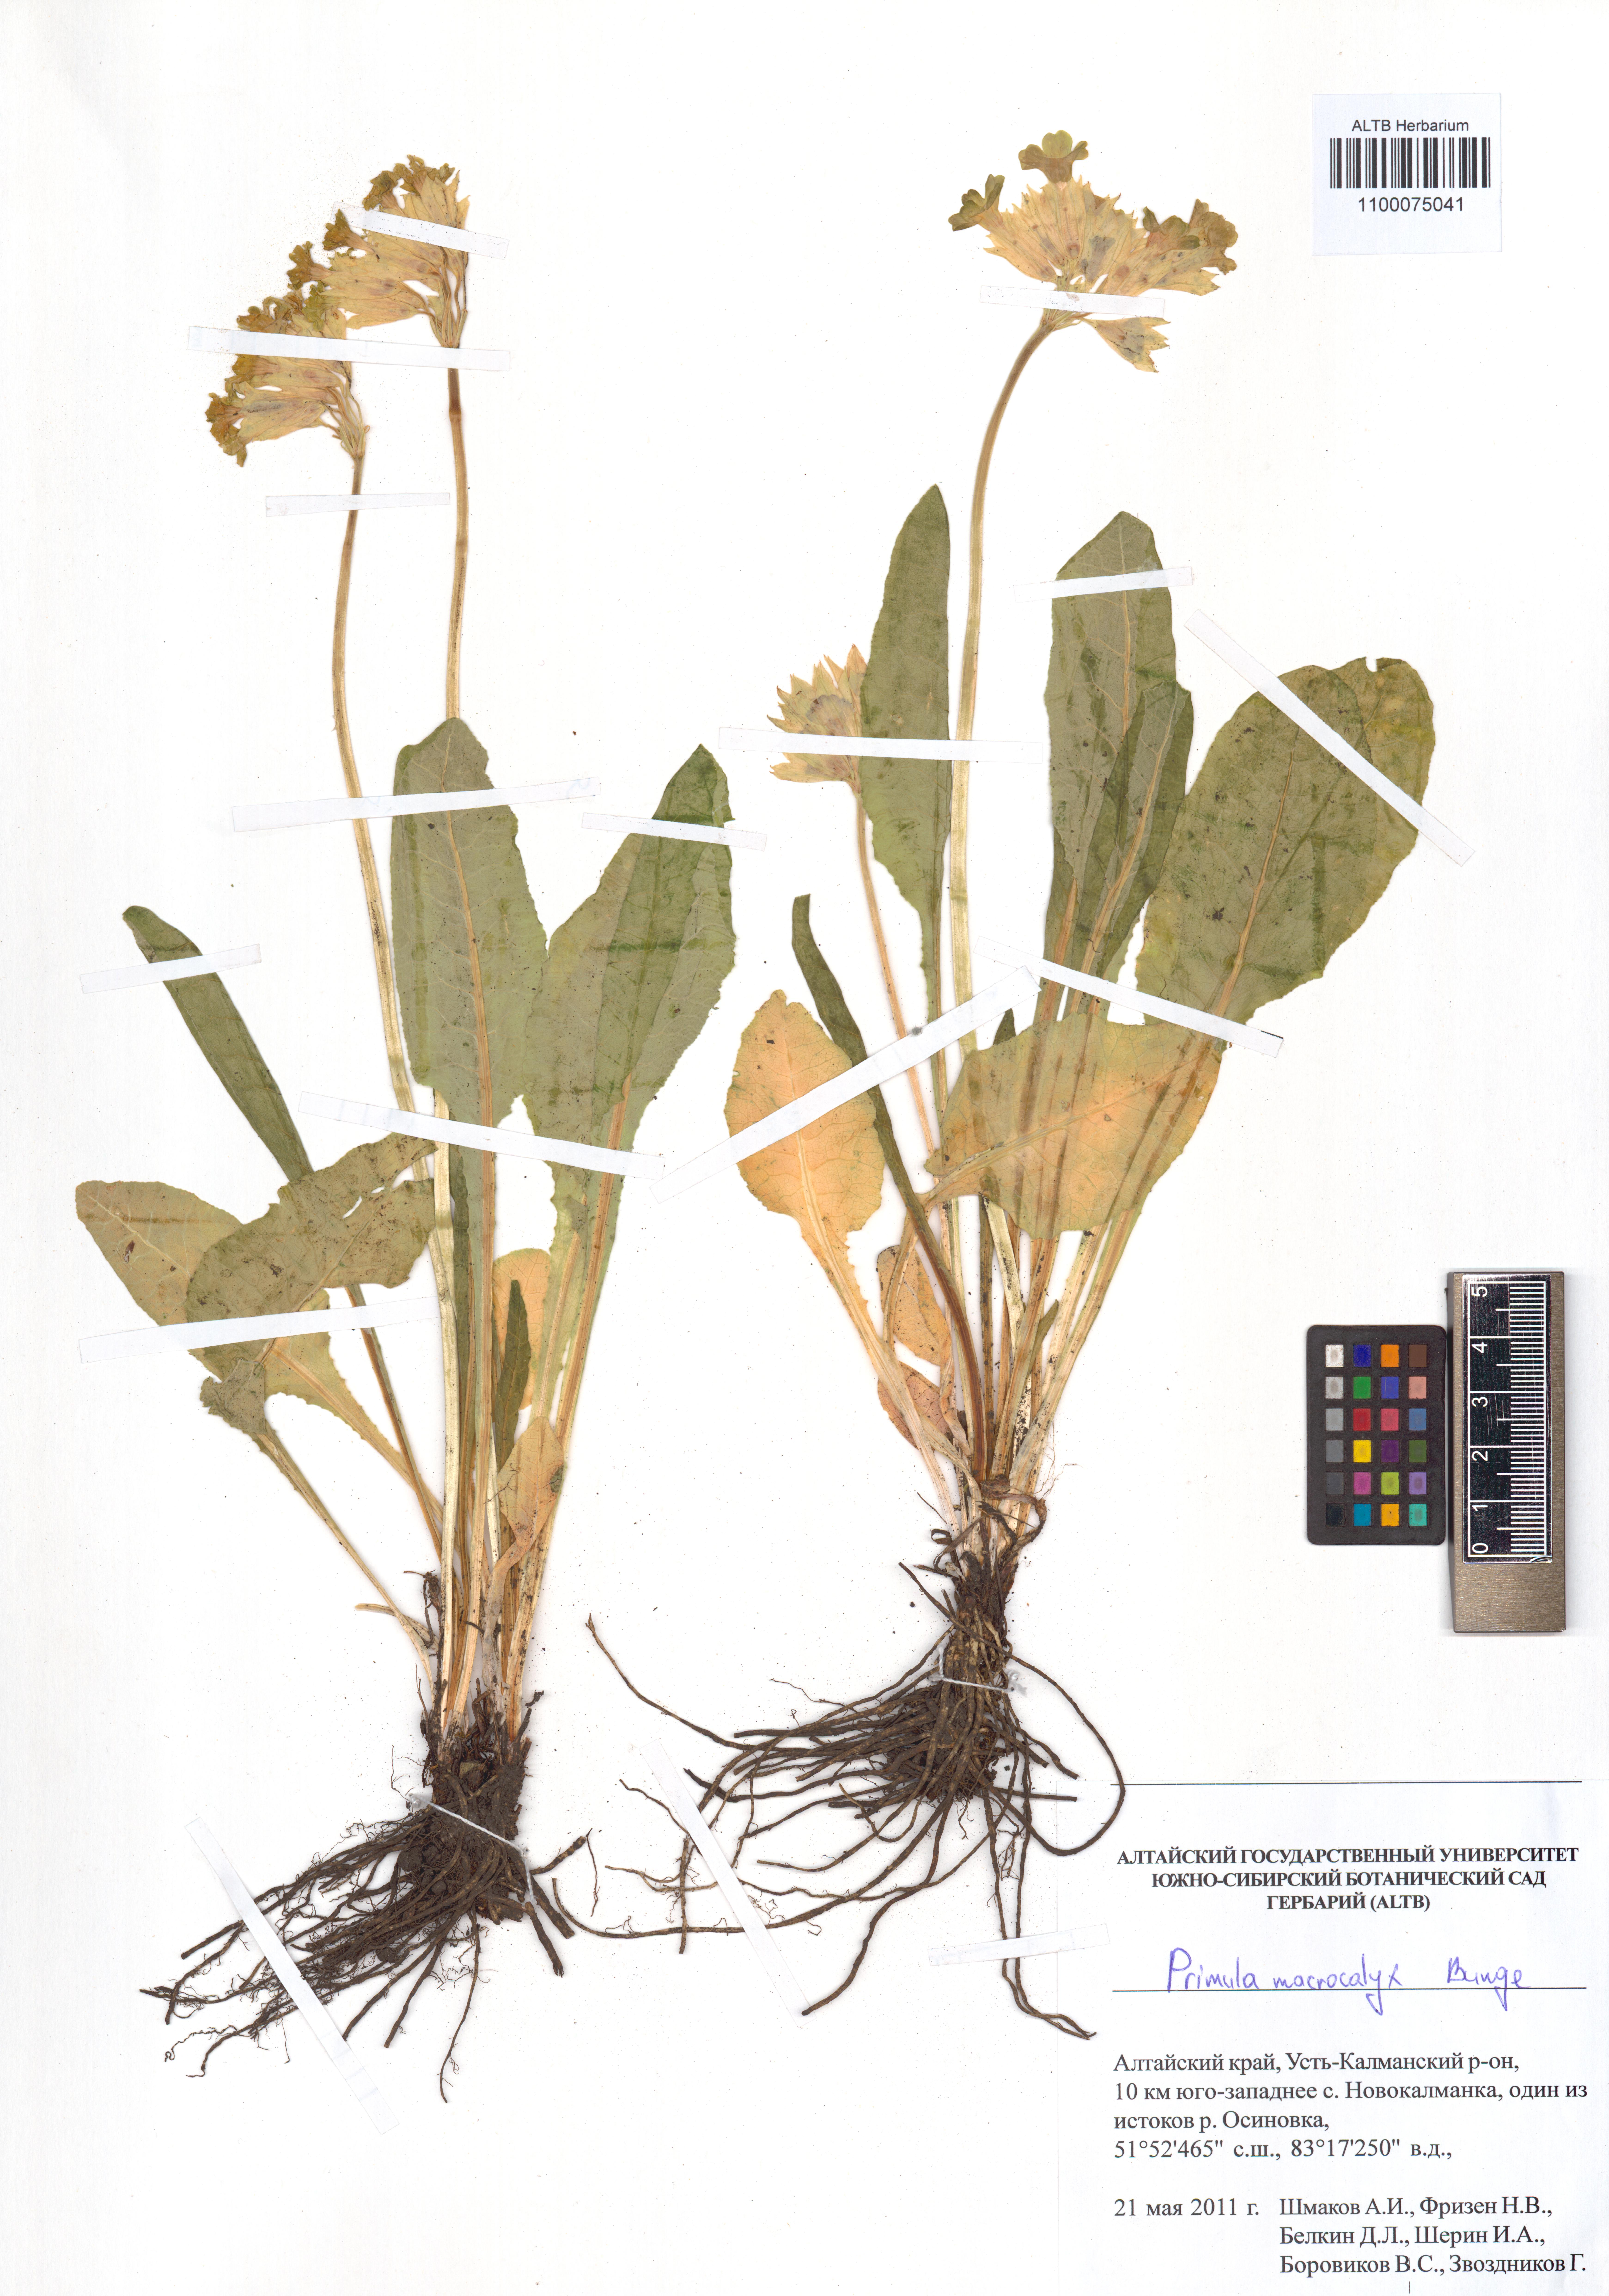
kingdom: Plantae
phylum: Tracheophyta
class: Magnoliopsida
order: Ericales
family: Primulaceae
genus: Primula
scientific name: Primula veris
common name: Cowslip
